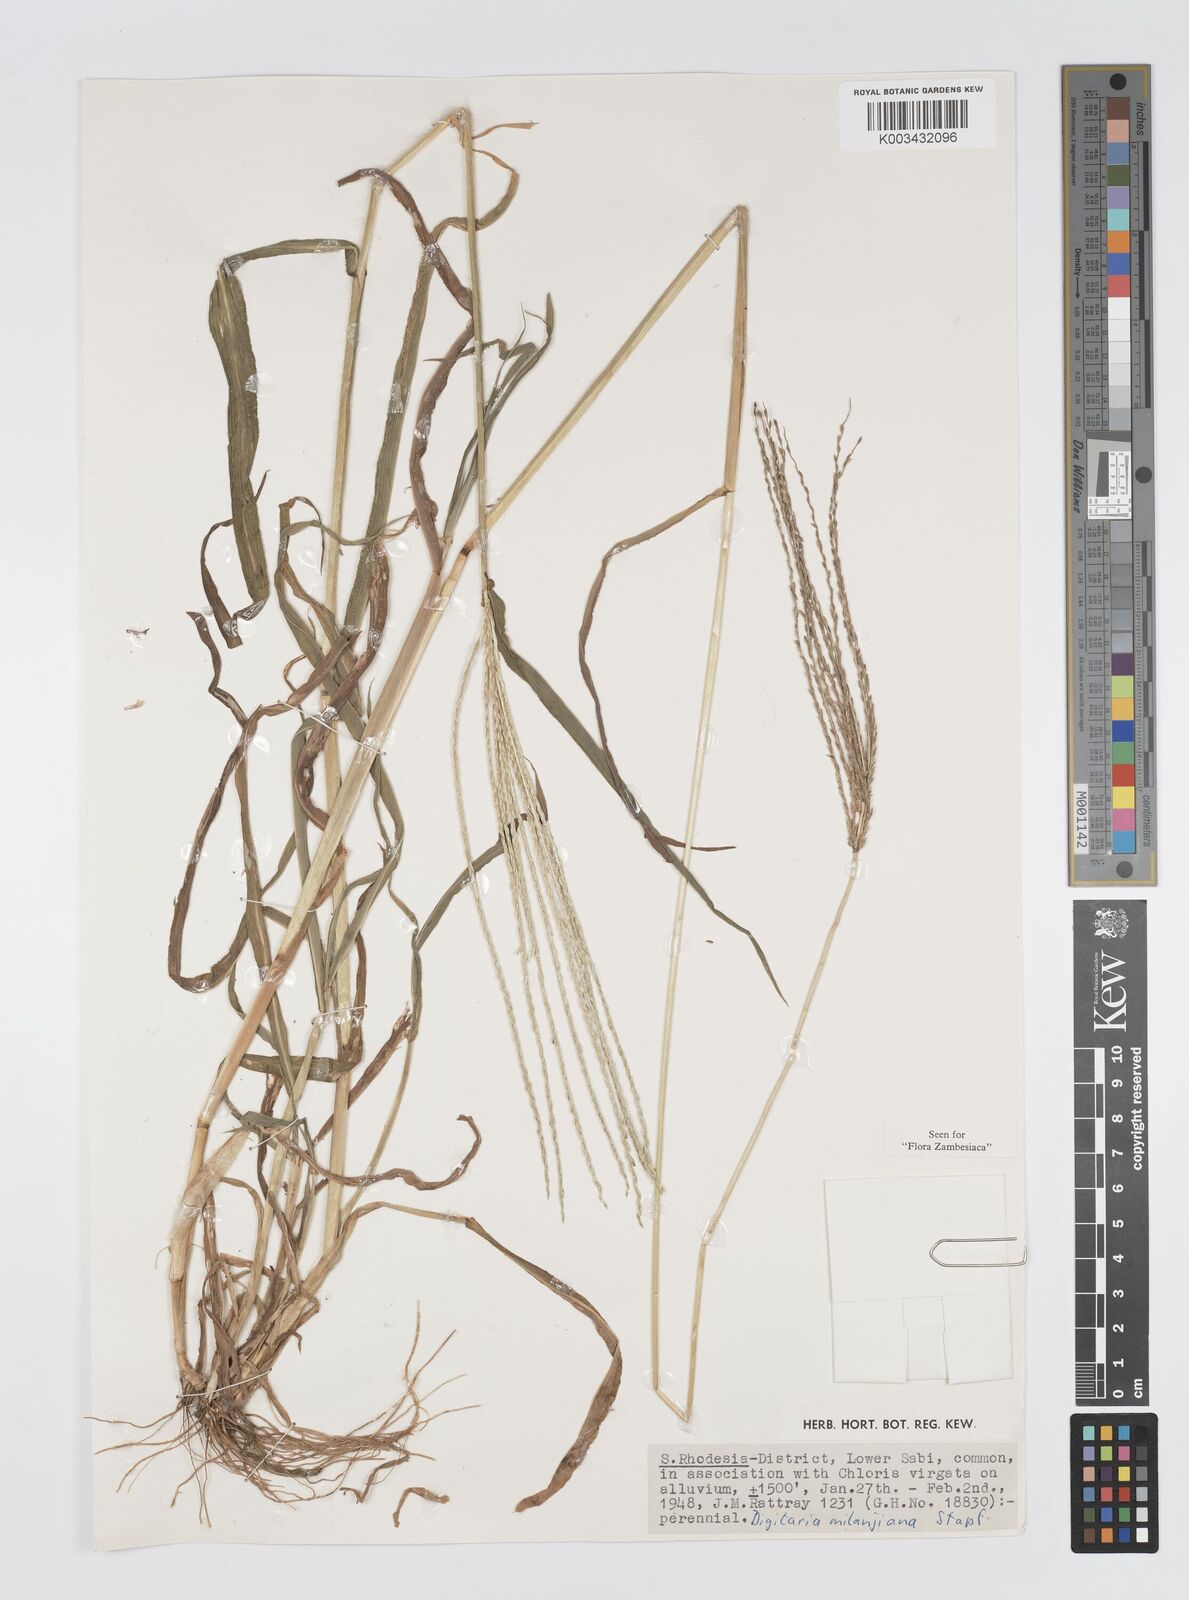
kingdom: Plantae
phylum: Tracheophyta
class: Liliopsida
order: Poales
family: Poaceae
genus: Digitaria
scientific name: Digitaria milanjiana
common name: Madagascar crabgrass
